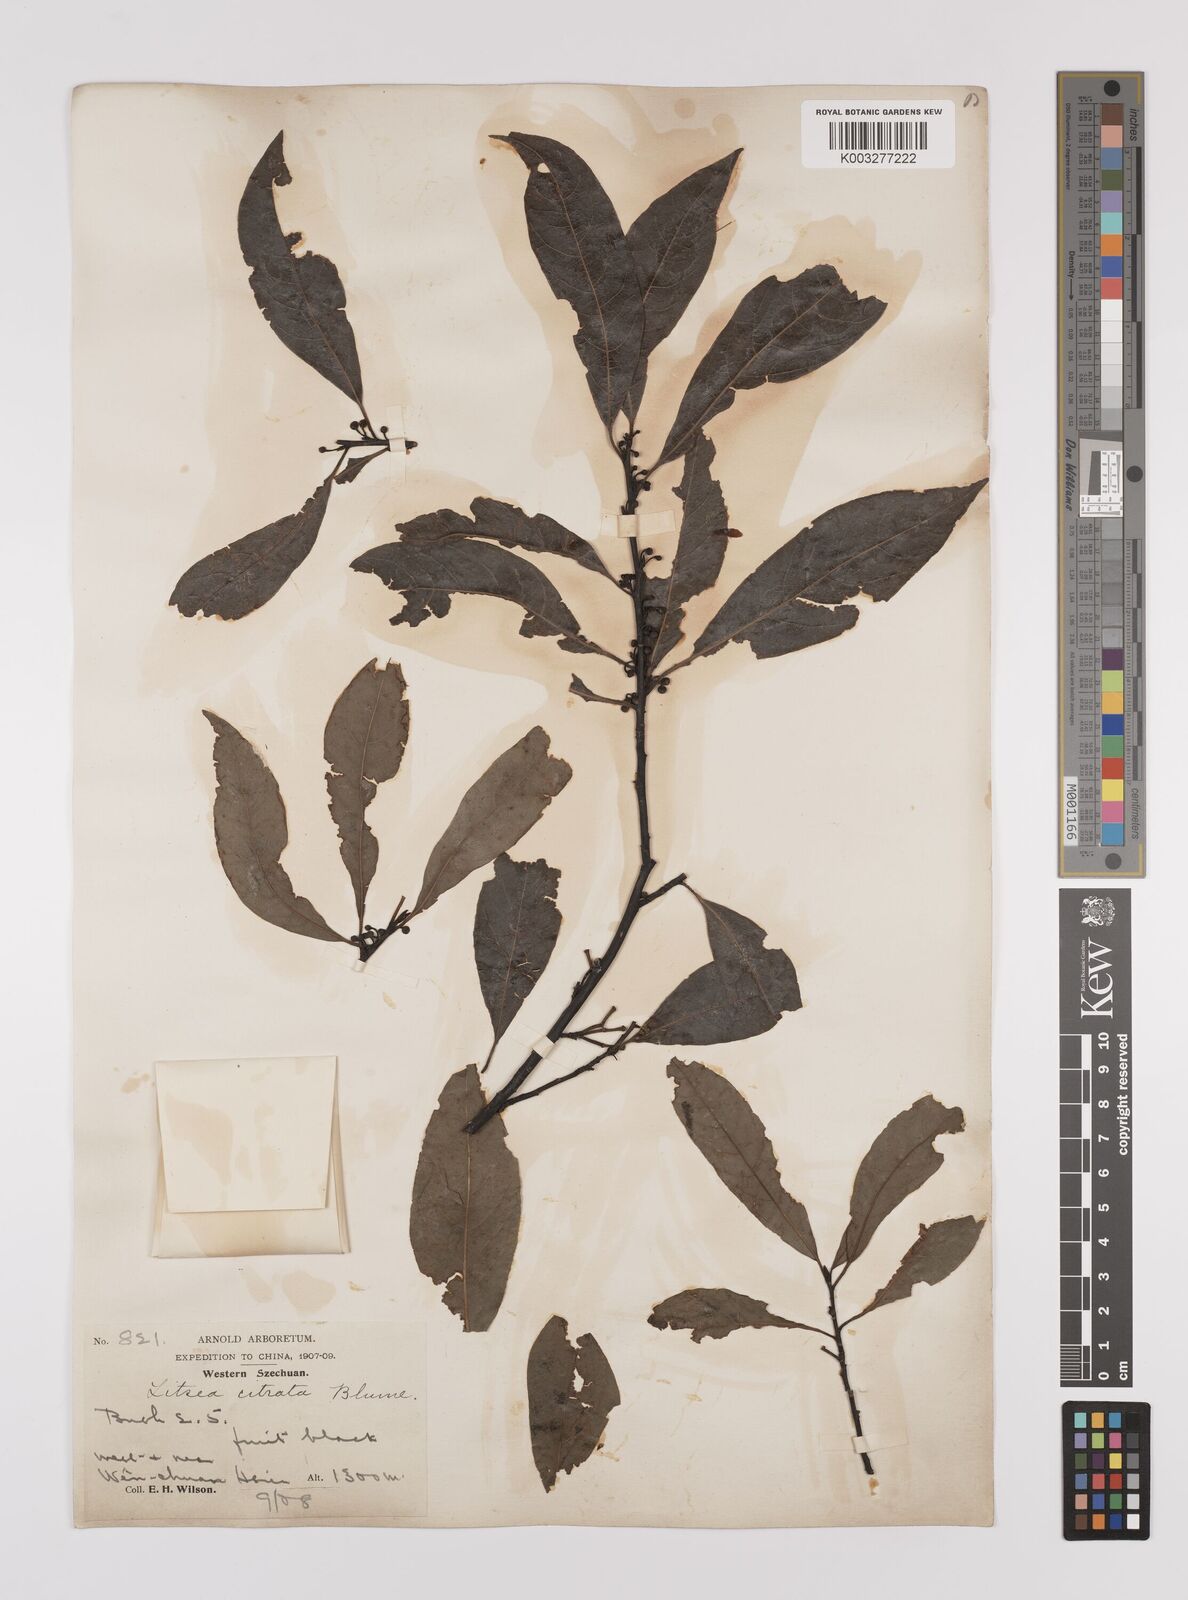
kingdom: Plantae
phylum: Tracheophyta
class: Magnoliopsida
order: Laurales
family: Lauraceae
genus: Litsea
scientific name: Litsea cubeba
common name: Mountain-pepper
